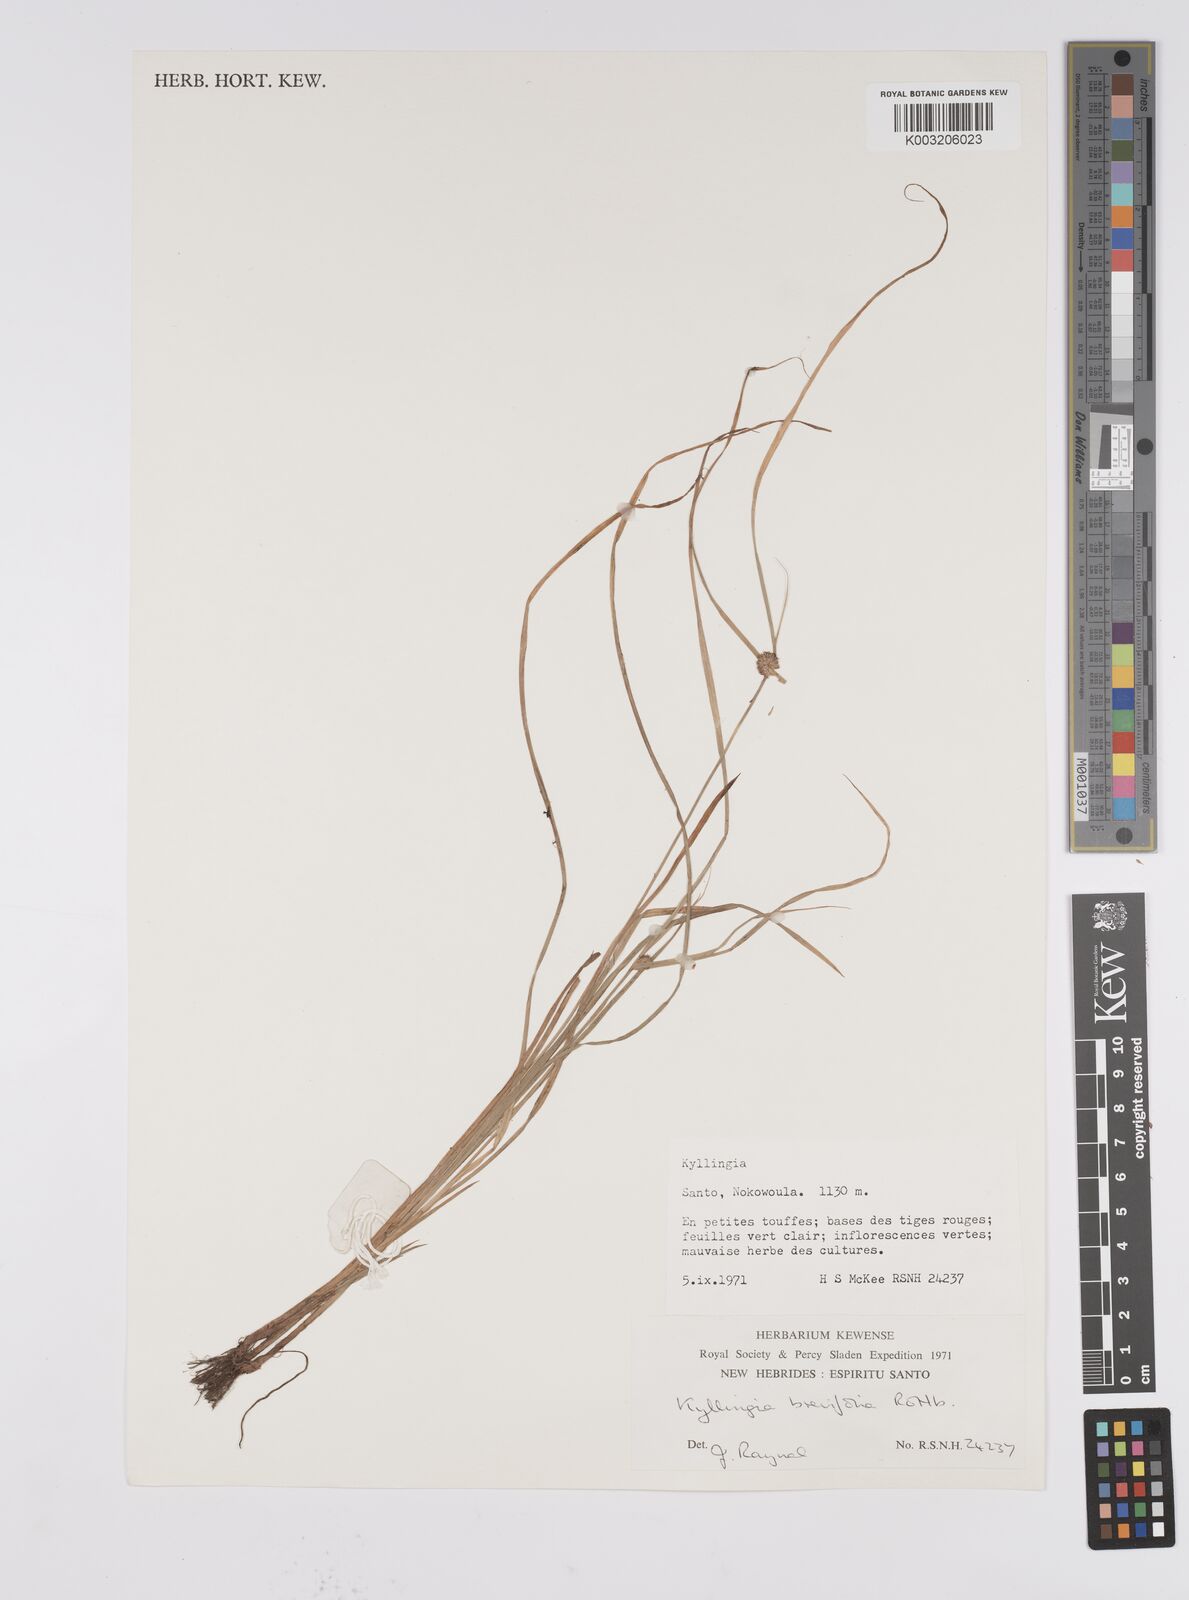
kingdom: Plantae
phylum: Tracheophyta
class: Liliopsida
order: Poales
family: Cyperaceae
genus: Cyperus
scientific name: Cyperus brevifolius
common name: Globe kyllinga
